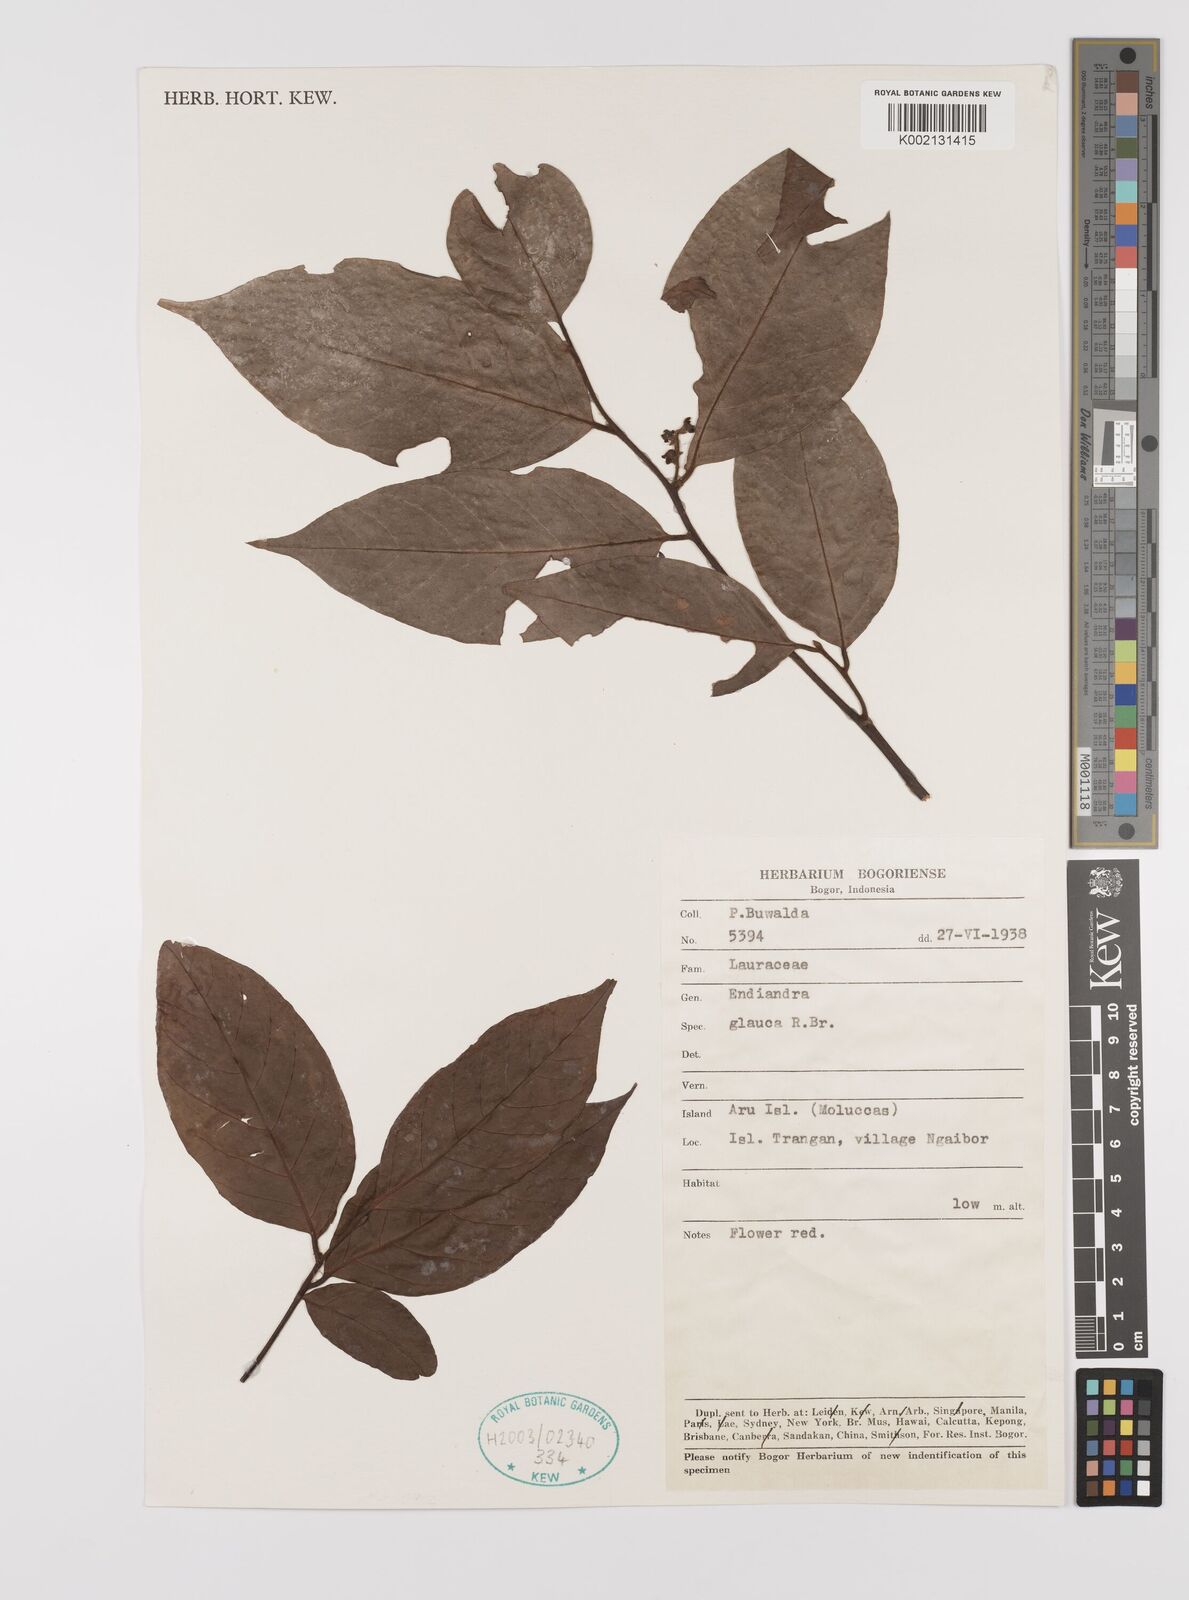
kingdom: Plantae
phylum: Tracheophyta
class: Magnoliopsida
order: Laurales
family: Lauraceae
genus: Endiandra
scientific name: Endiandra glauca
